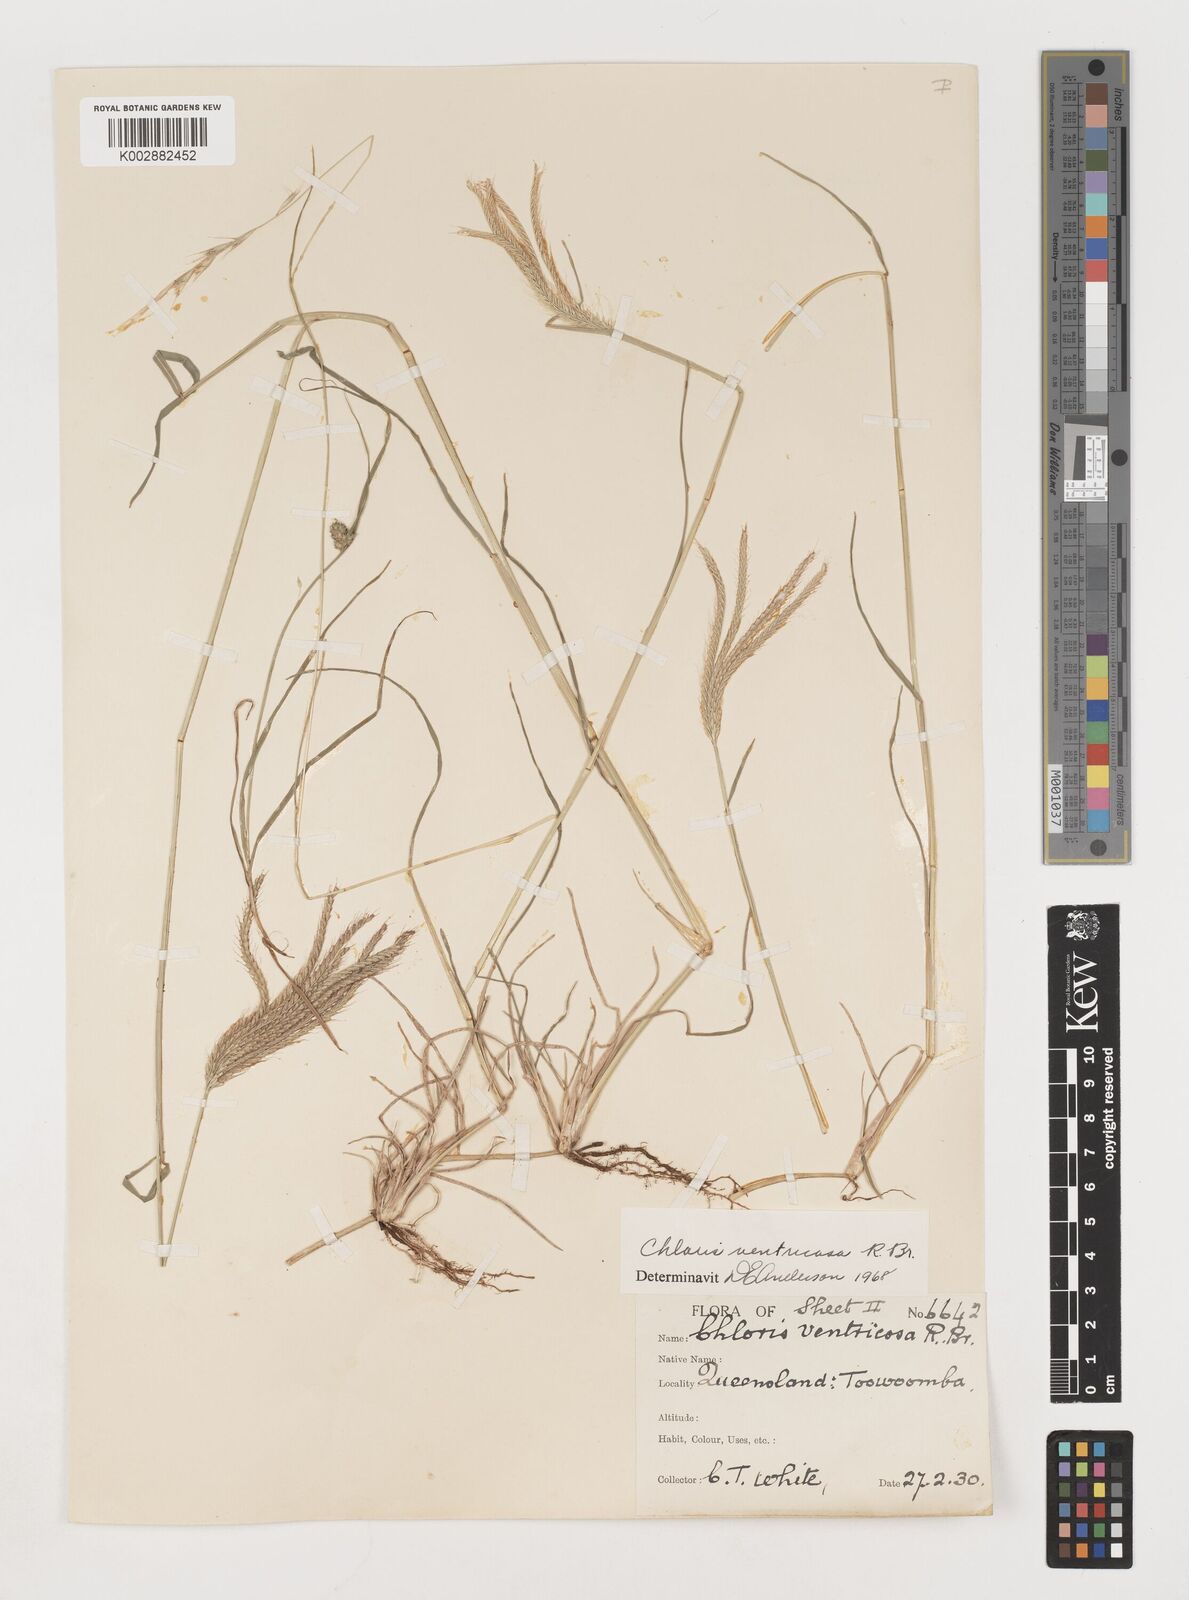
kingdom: Plantae
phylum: Tracheophyta
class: Liliopsida
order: Poales
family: Poaceae
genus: Chloris
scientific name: Chloris ventricosa
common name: Australian windmill grass
